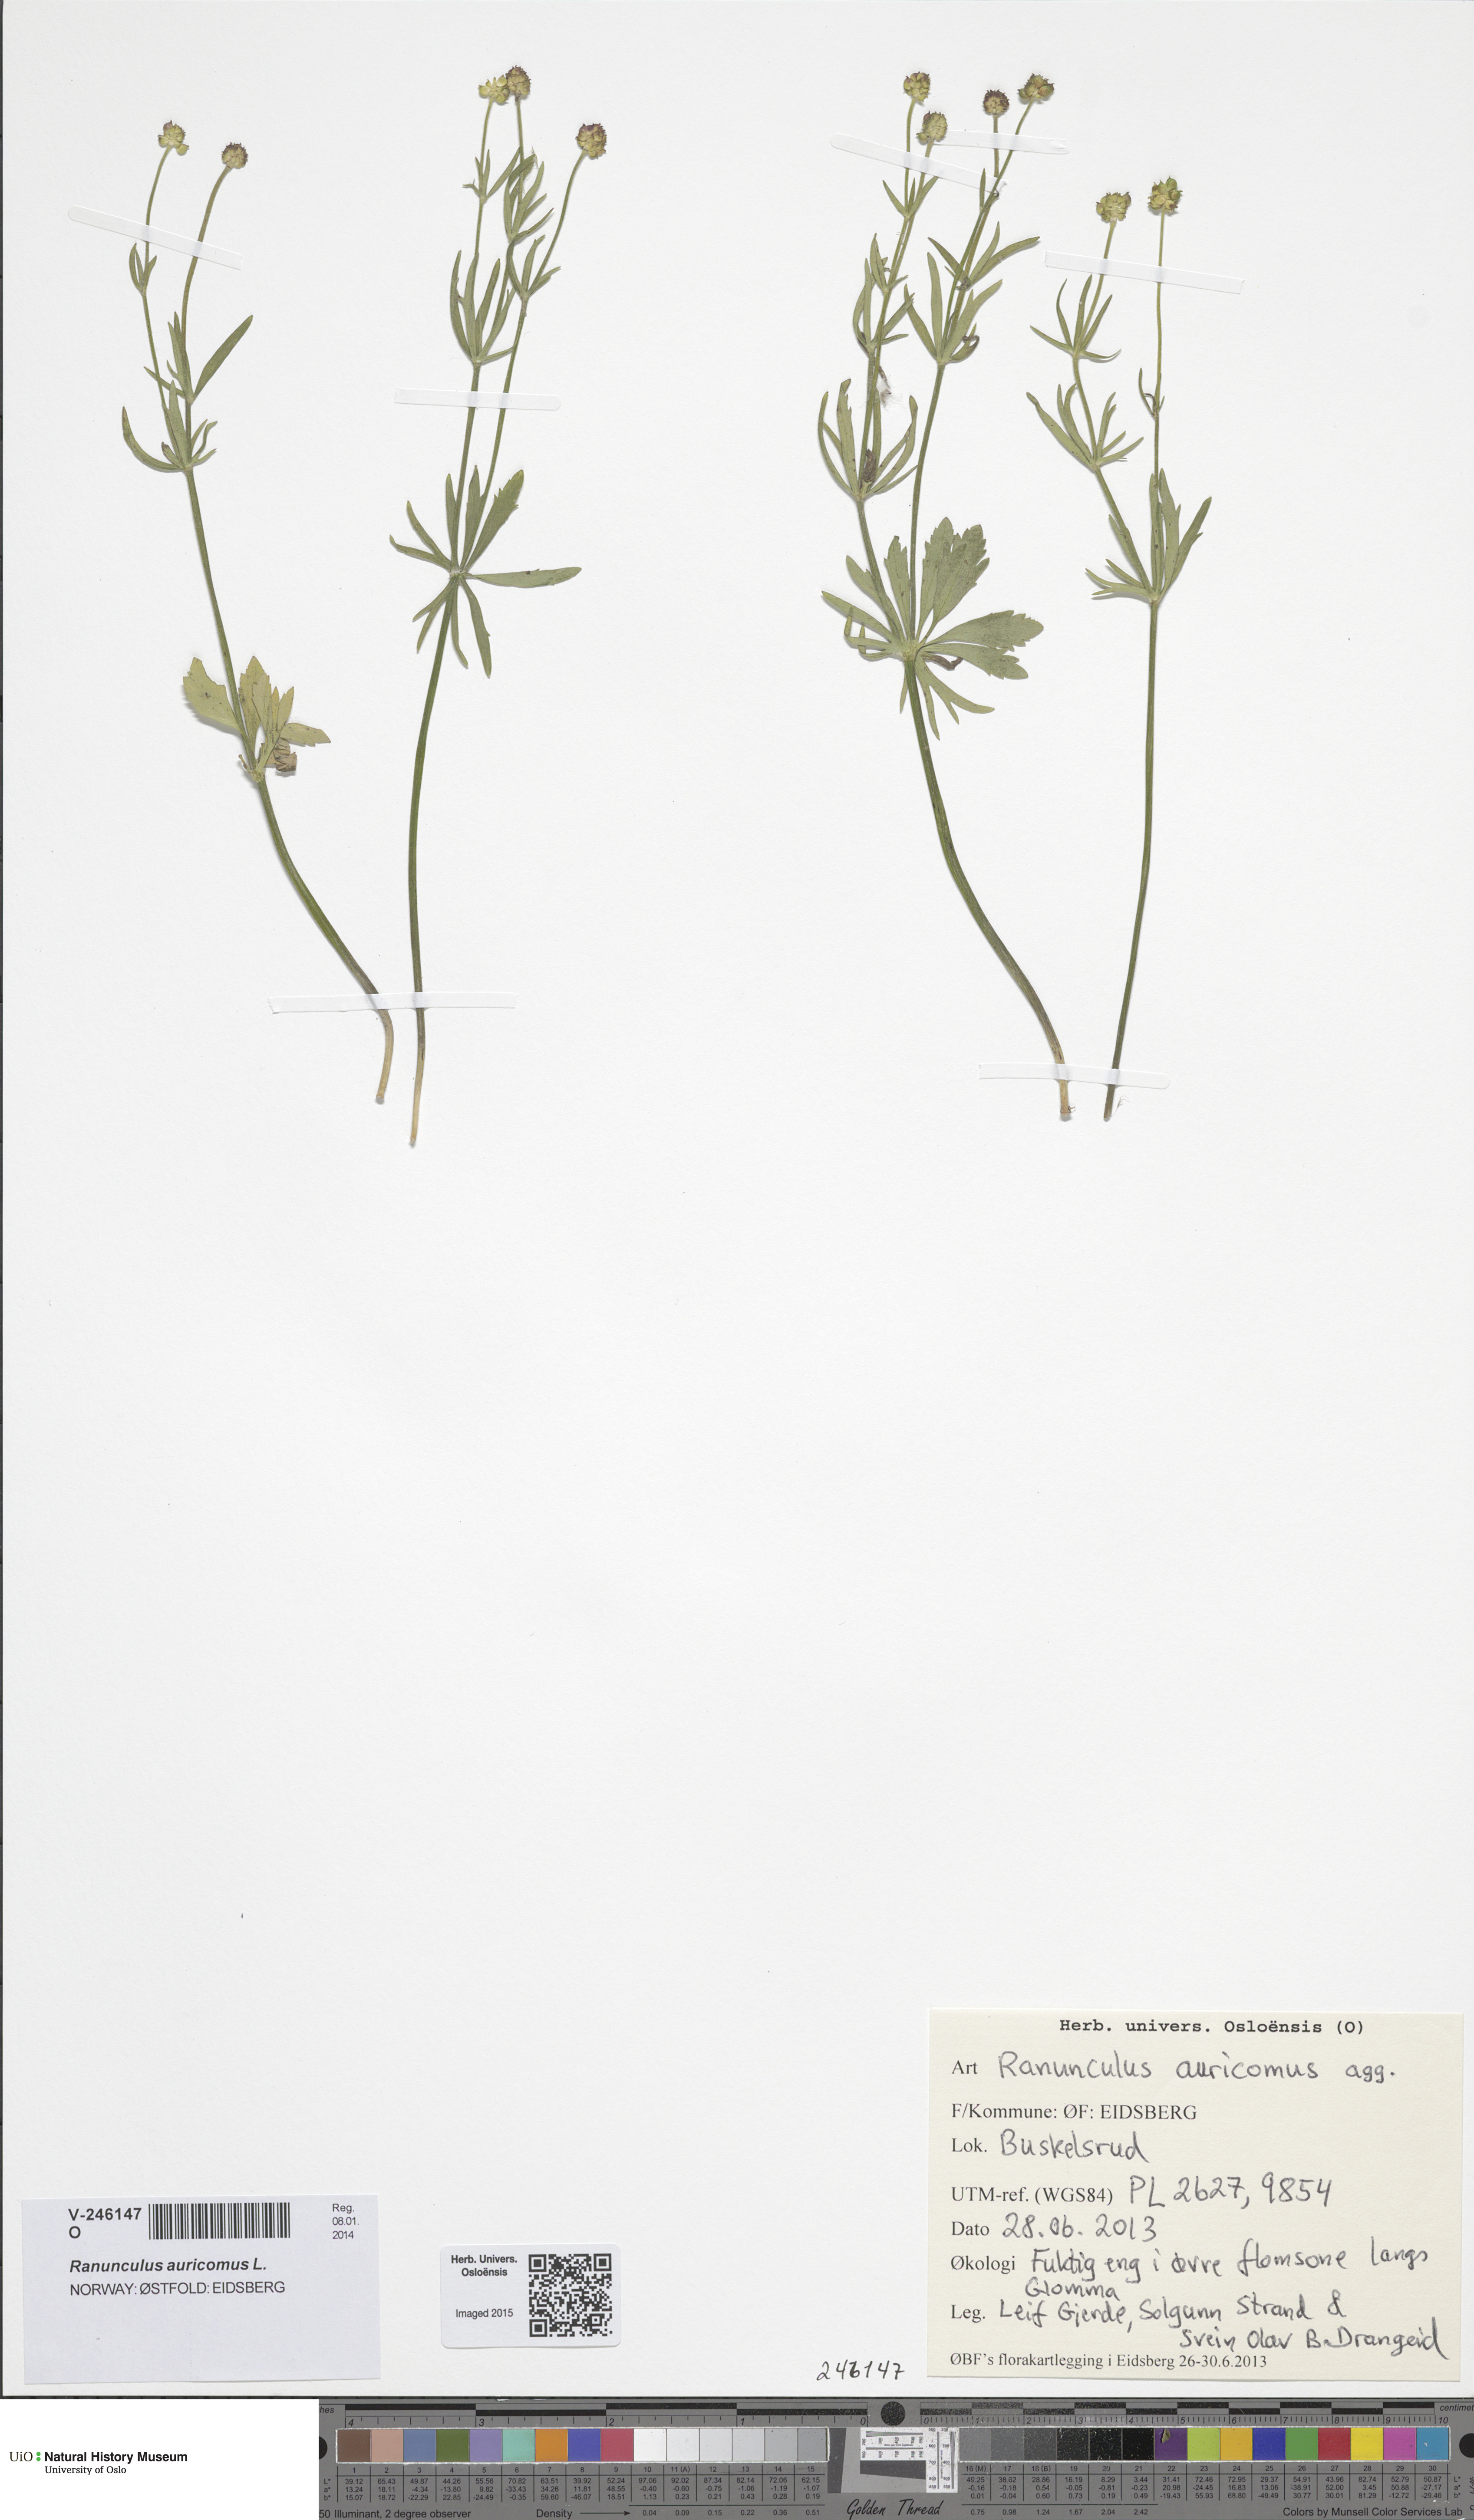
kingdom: Plantae
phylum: Tracheophyta
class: Magnoliopsida
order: Ranunculales
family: Ranunculaceae
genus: Ranunculus
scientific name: Ranunculus auricomus
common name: Goldilocks buttercup
